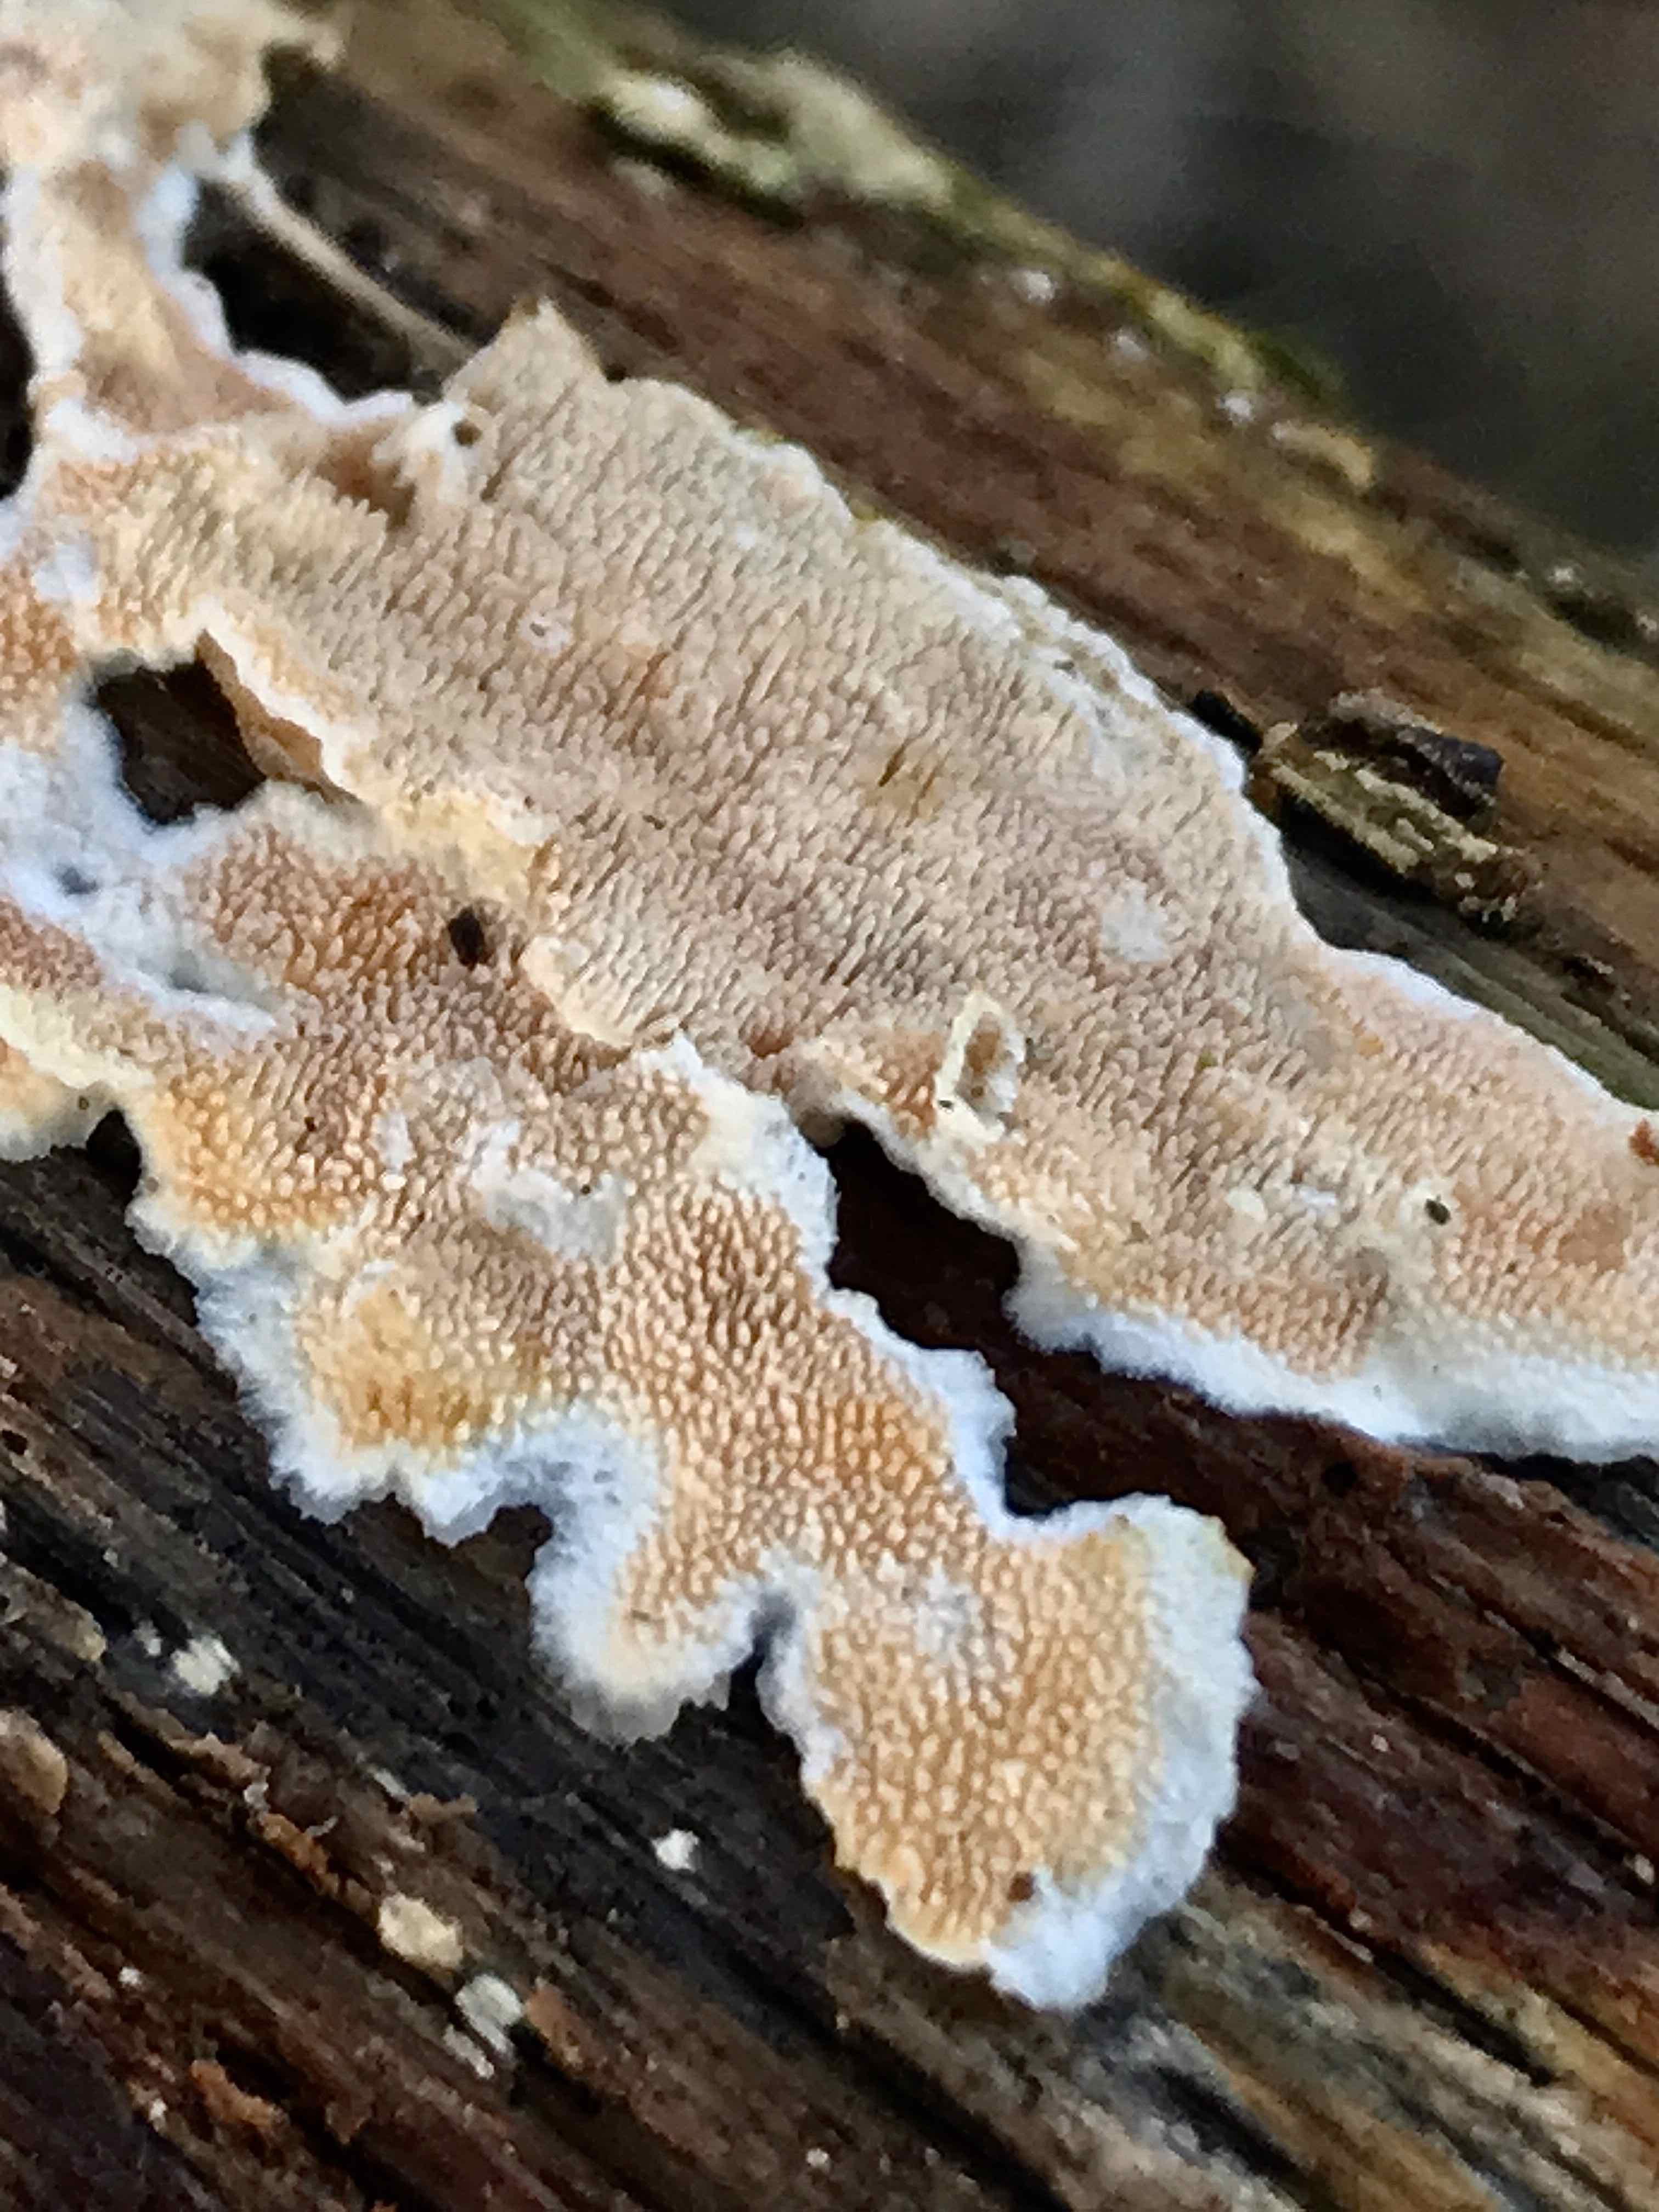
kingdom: Fungi
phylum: Basidiomycota
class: Agaricomycetes
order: Polyporales
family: Steccherinaceae
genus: Steccherinum
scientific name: Steccherinum ochraceum
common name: almindelig skønpig
